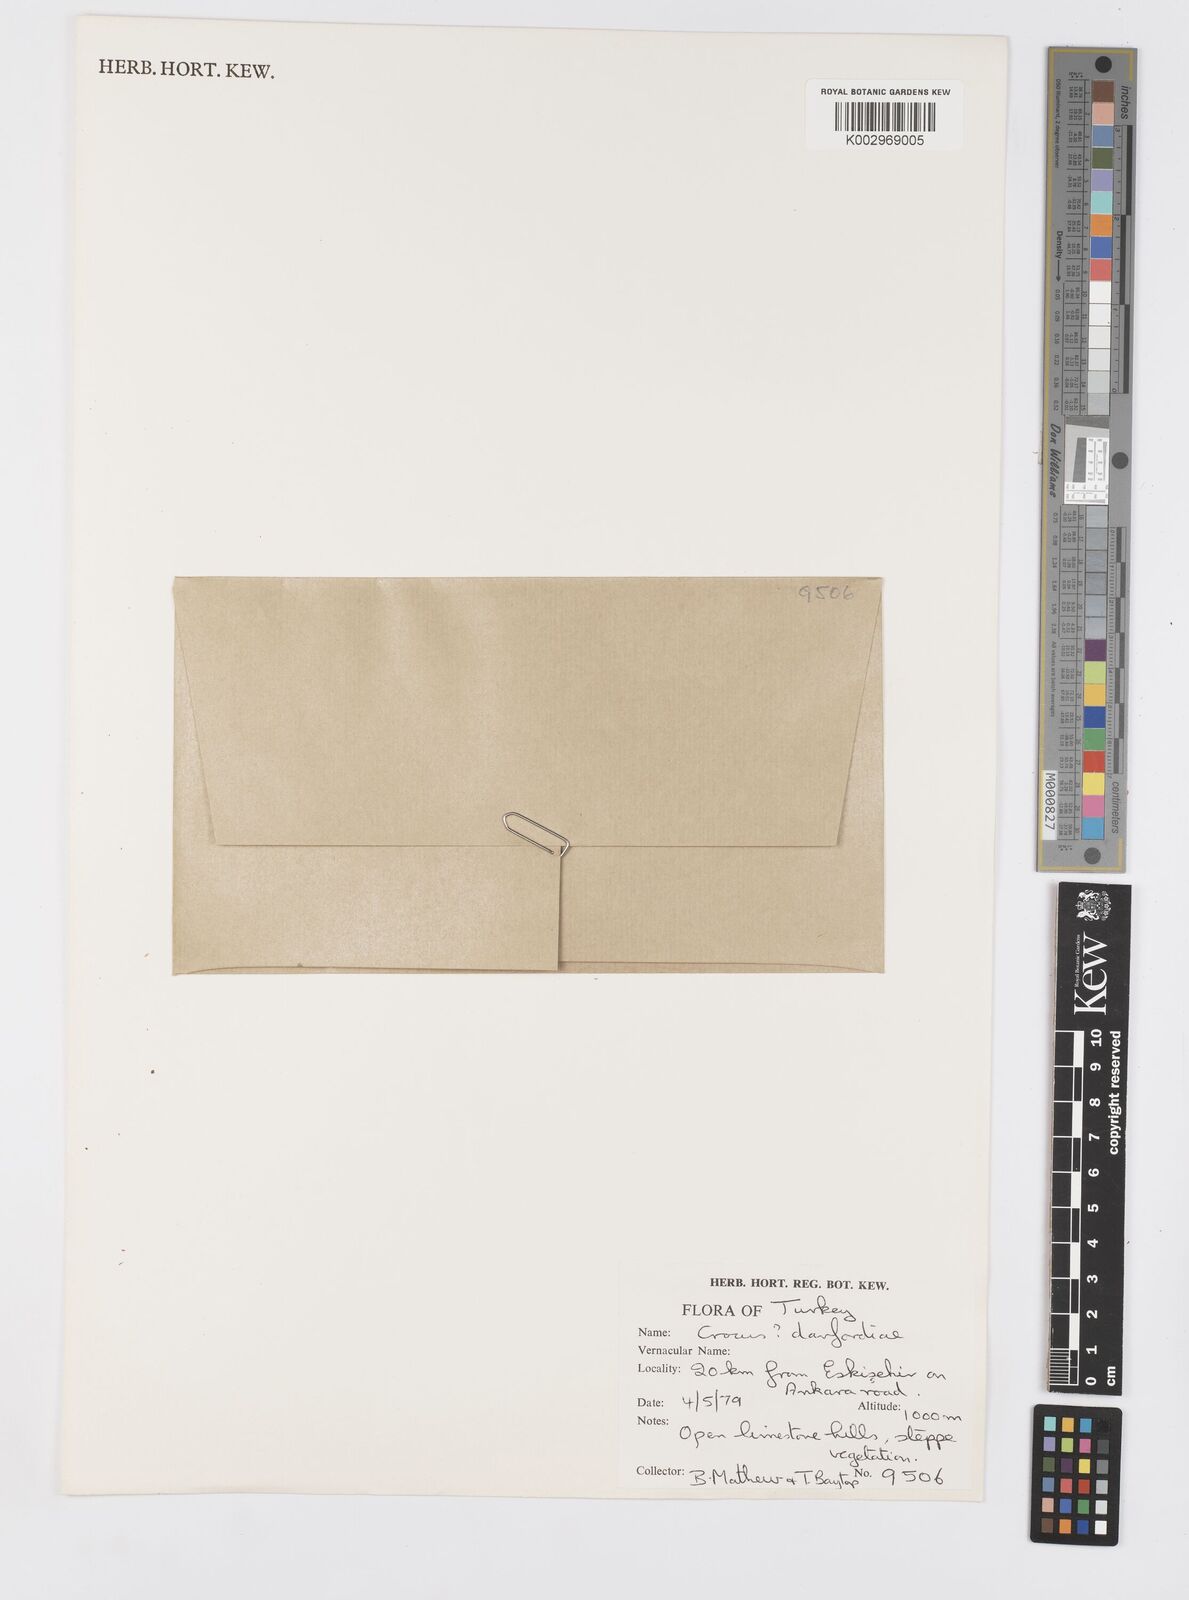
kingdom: Plantae
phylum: Tracheophyta
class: Liliopsida
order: Asparagales
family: Iridaceae
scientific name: Iridaceae
